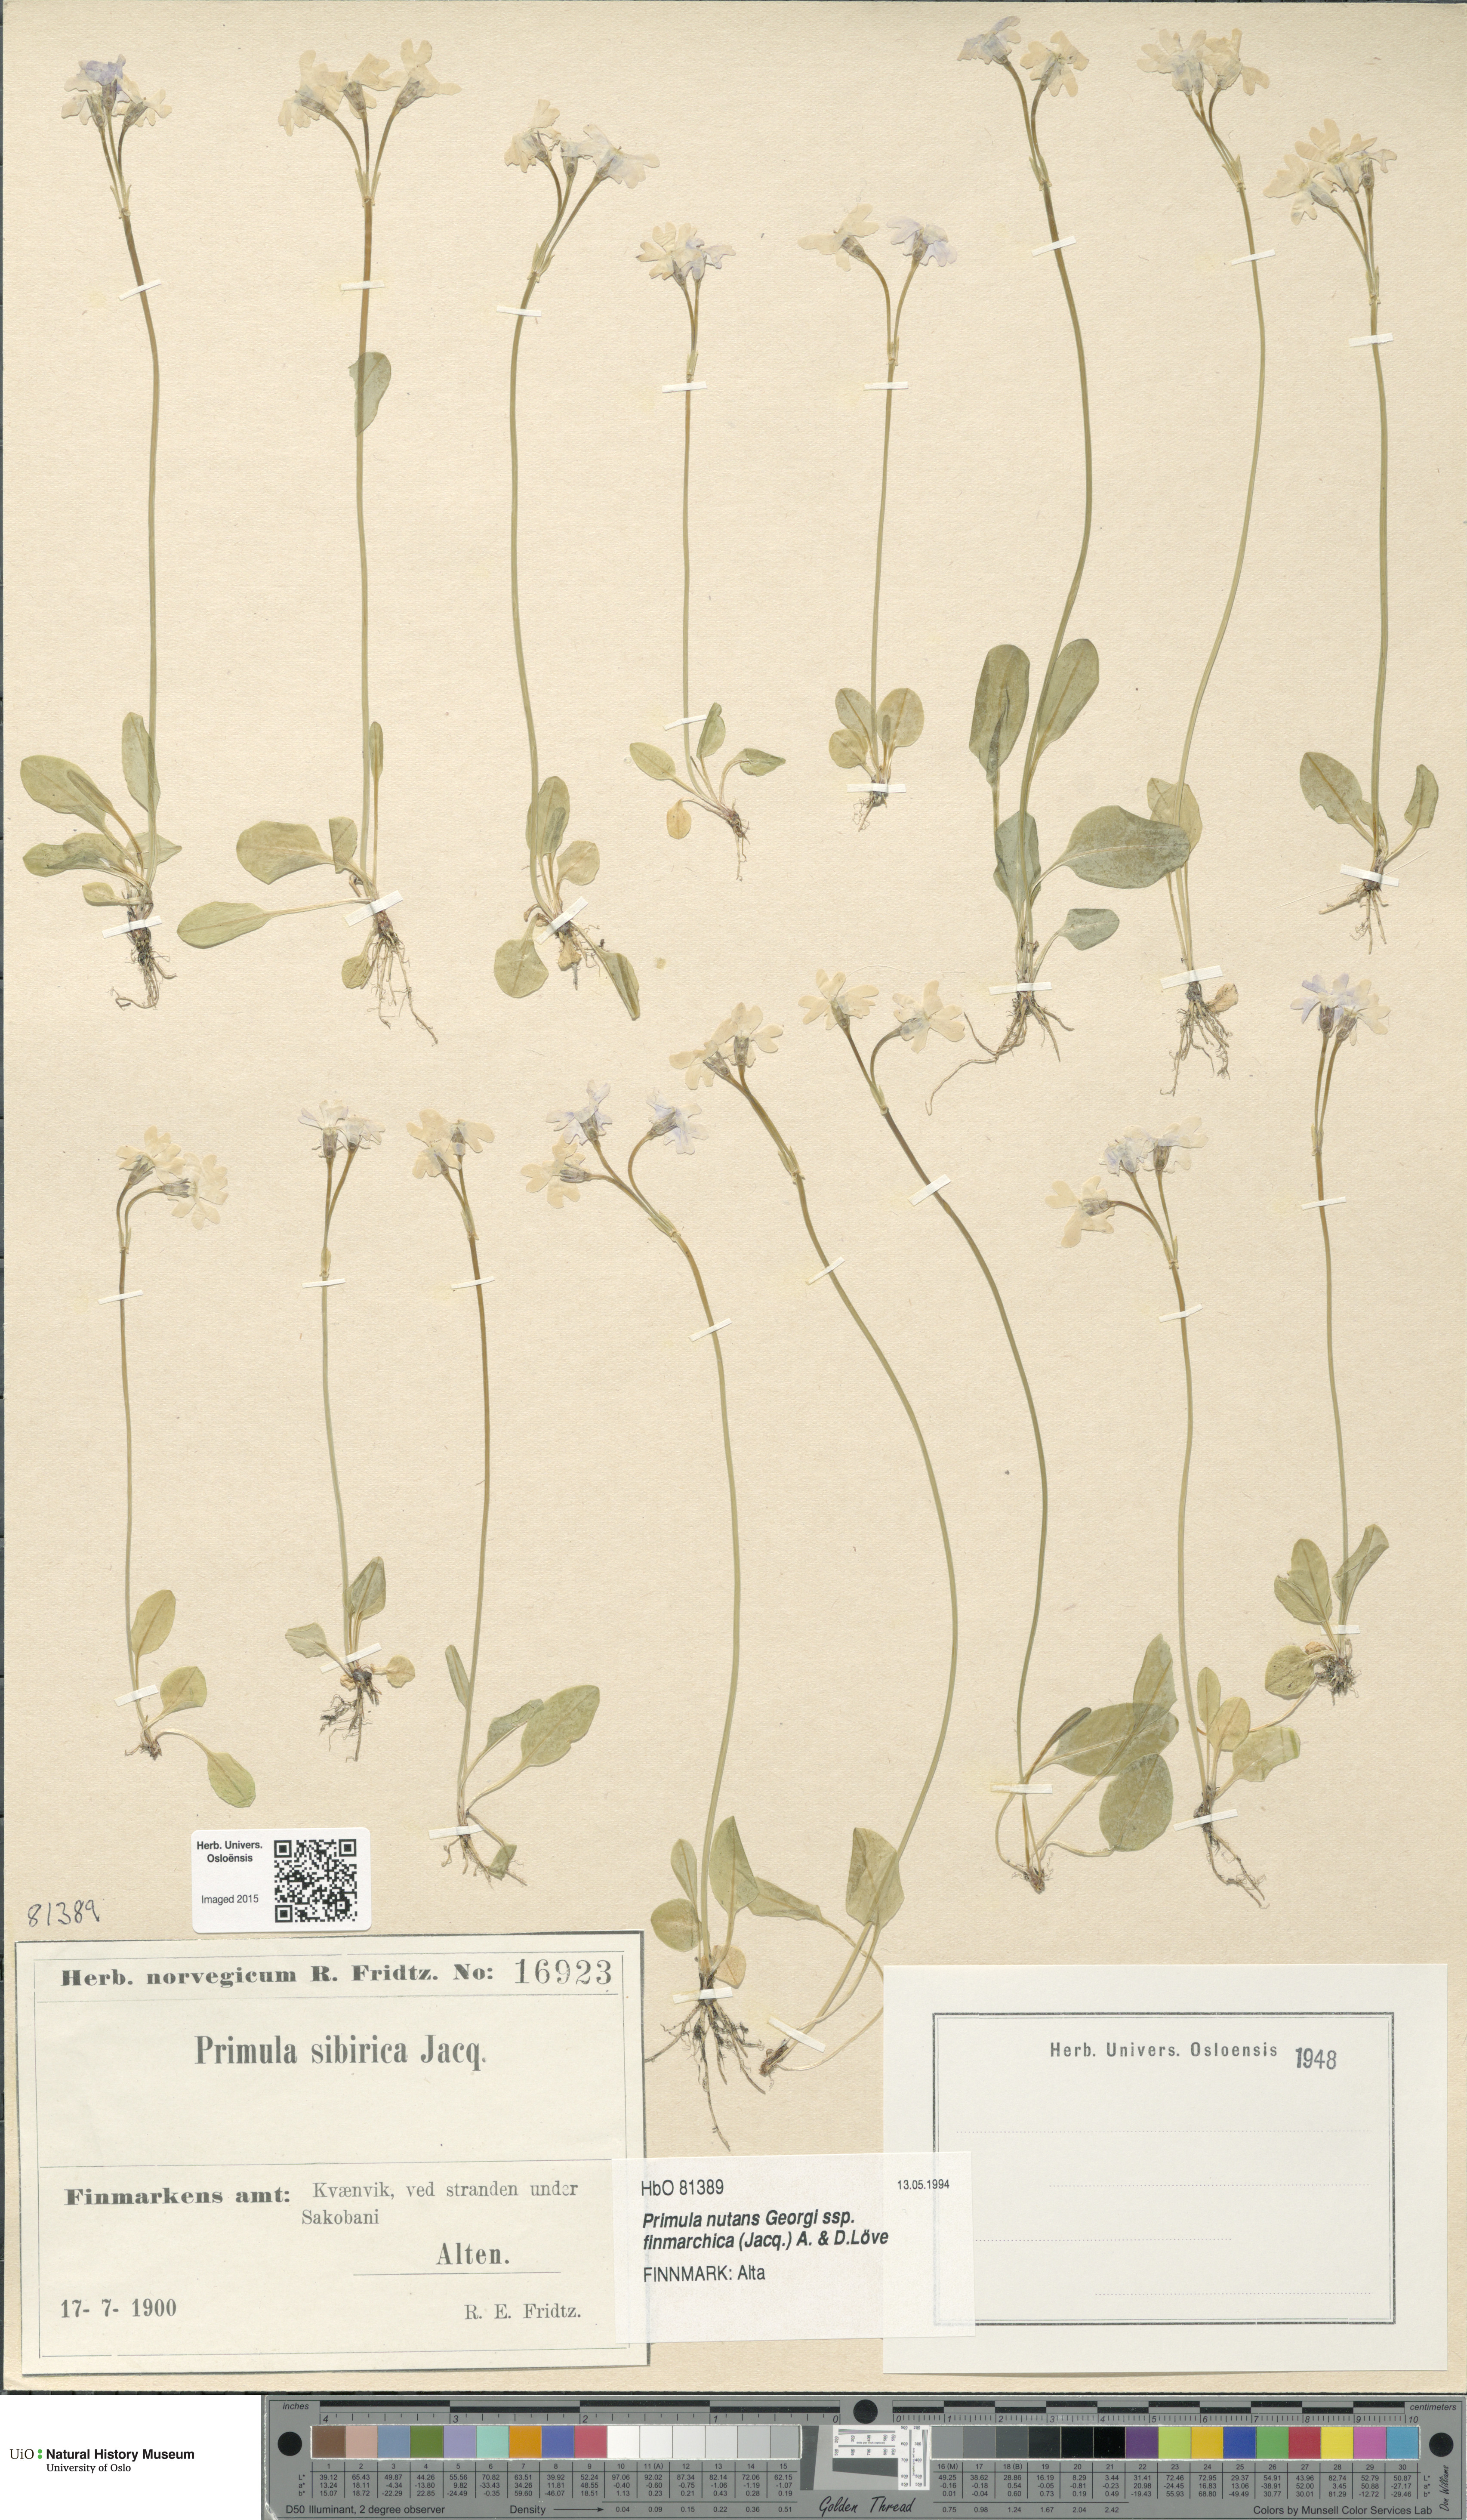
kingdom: Plantae
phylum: Tracheophyta
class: Magnoliopsida
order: Ericales
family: Primulaceae
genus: Primula
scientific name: Primula nutans
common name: Siberian primrose
